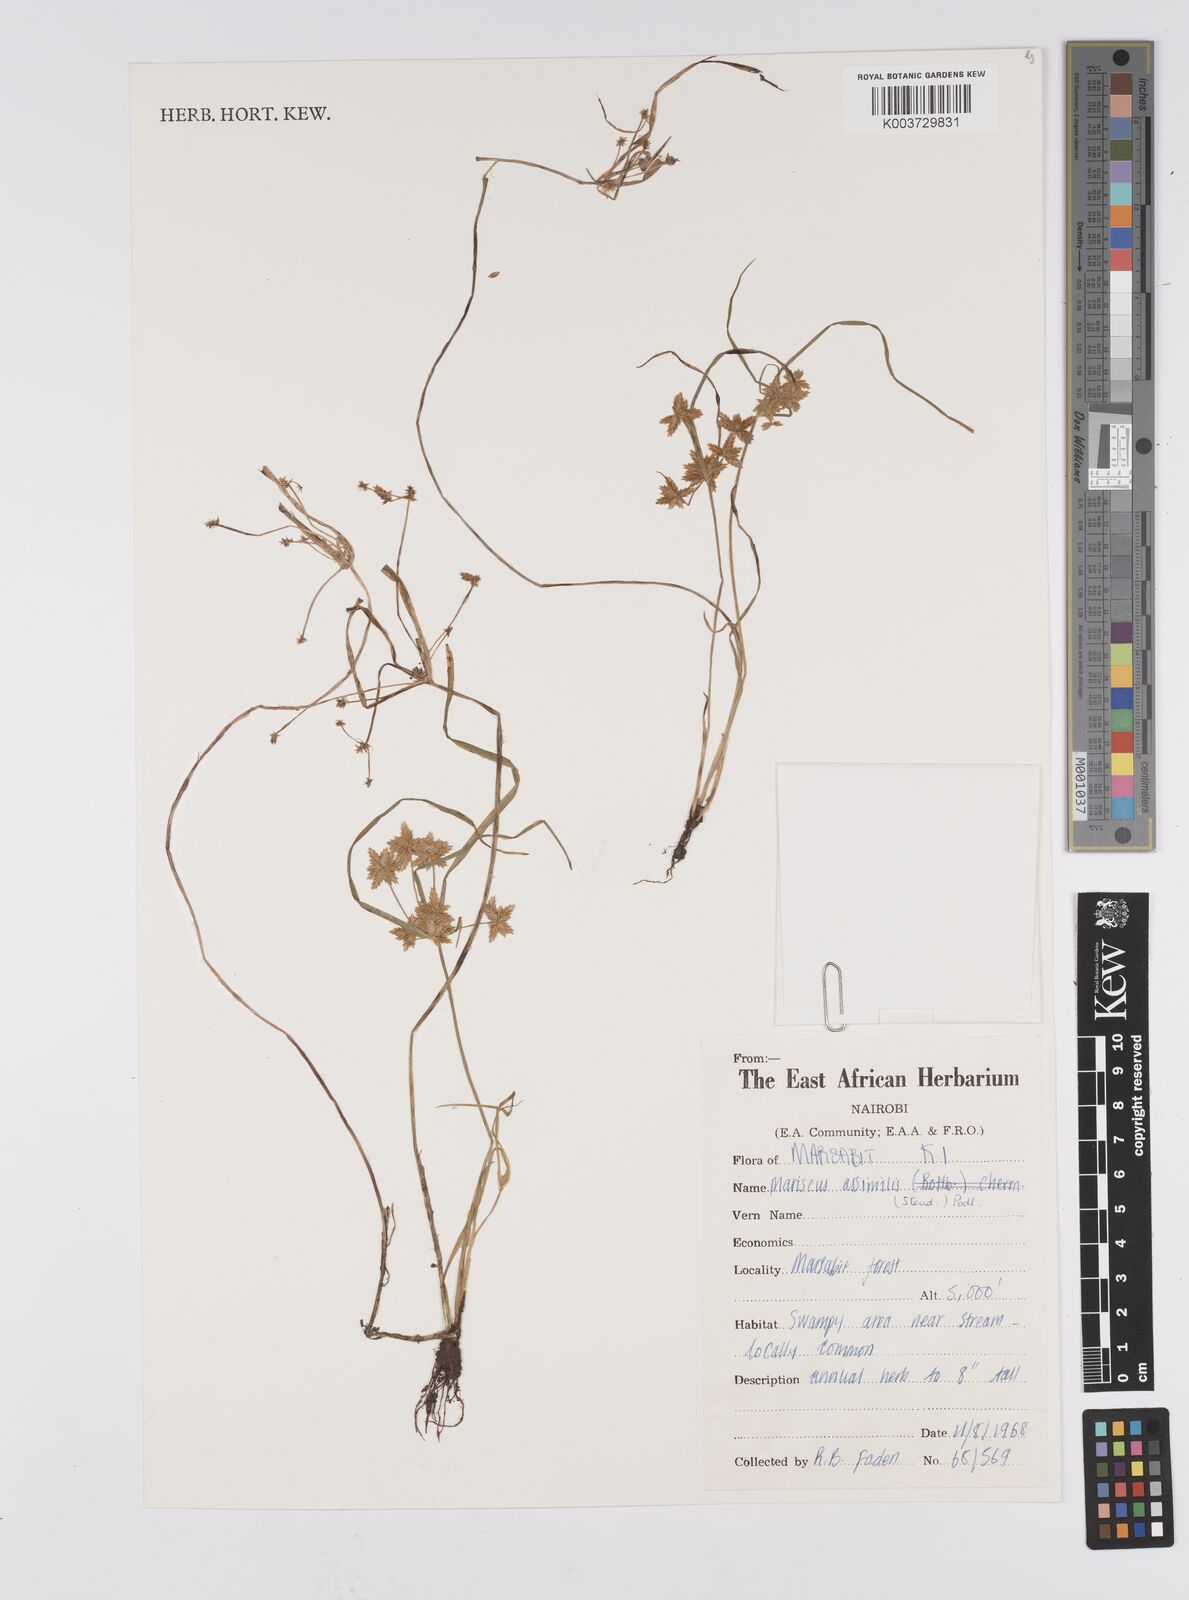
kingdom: Plantae
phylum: Tracheophyta
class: Liliopsida
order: Poales
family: Cyperaceae
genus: Cyperus
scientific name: Cyperus assimilis
